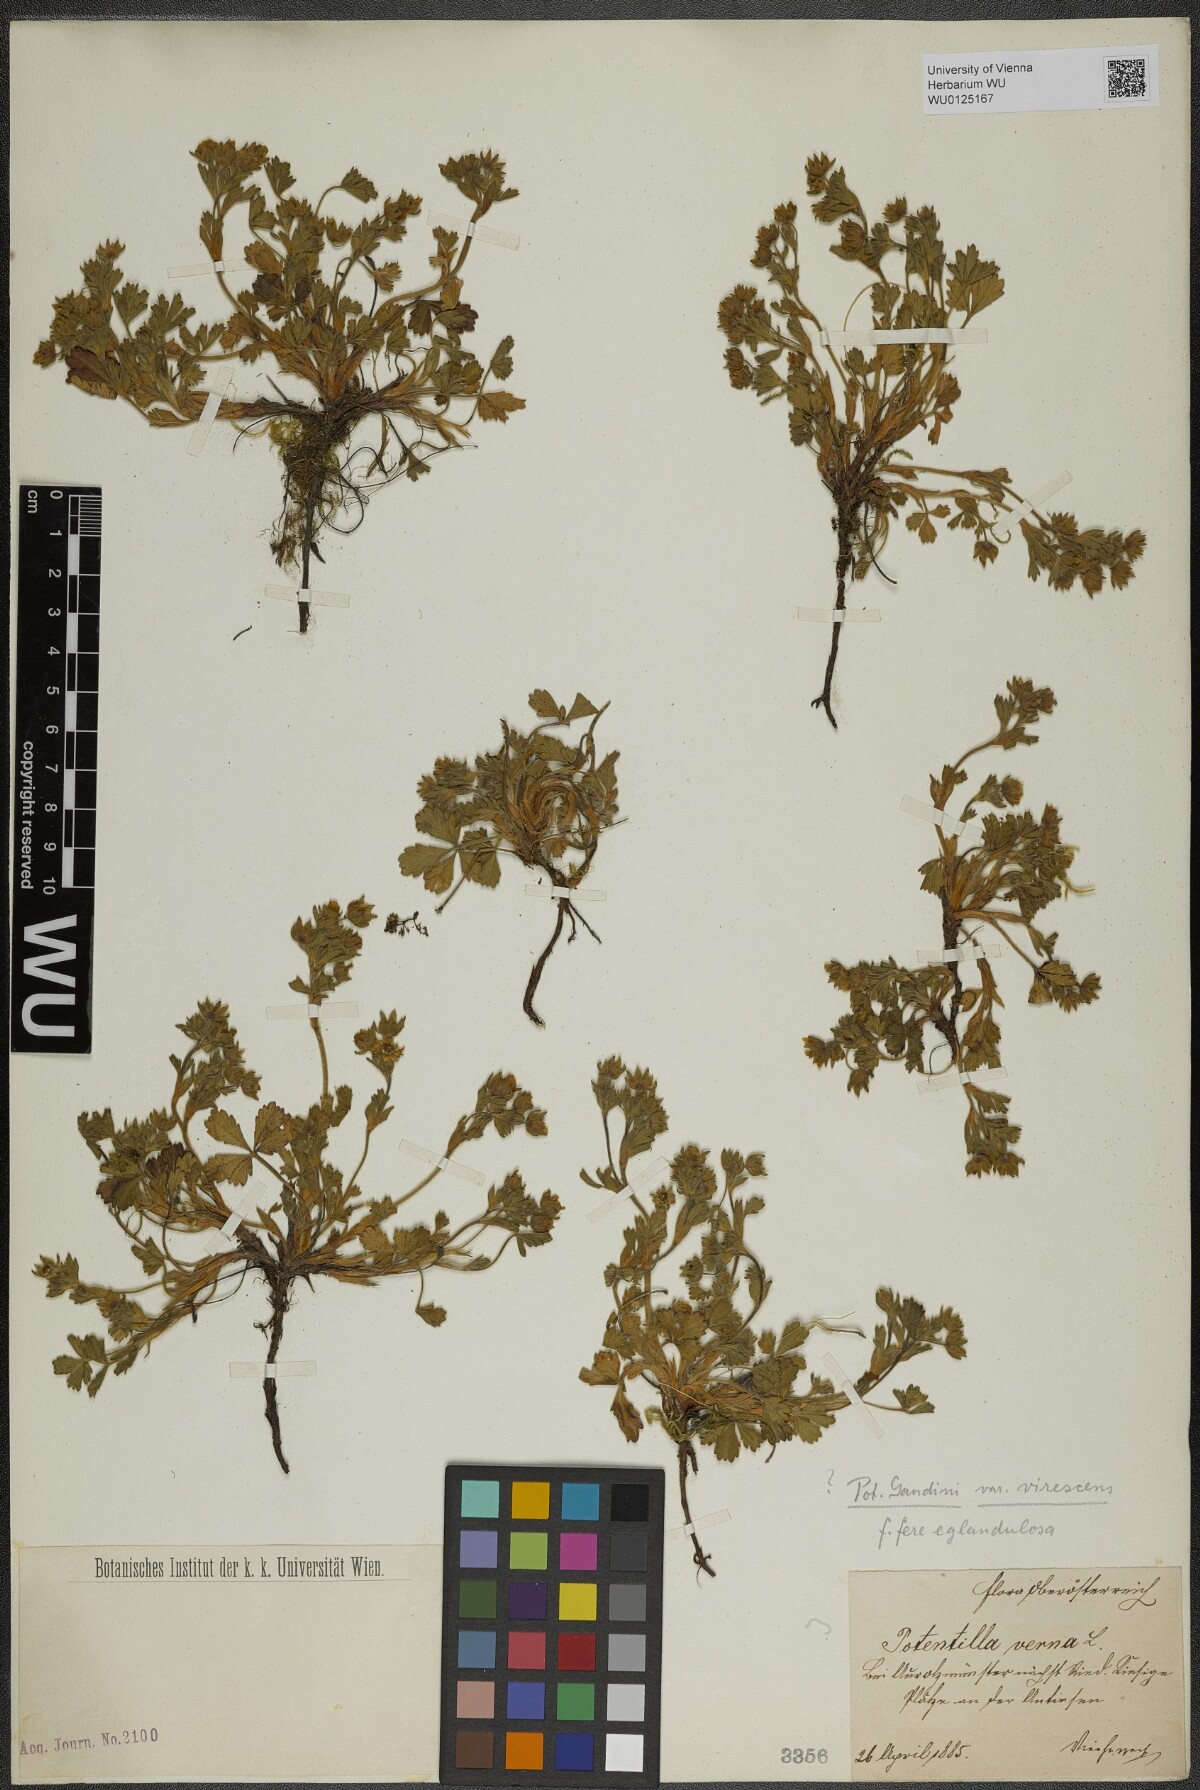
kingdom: Plantae
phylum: Tracheophyta
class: Magnoliopsida
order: Rosales
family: Rosaceae
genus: Potentilla
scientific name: Potentilla pusilla
